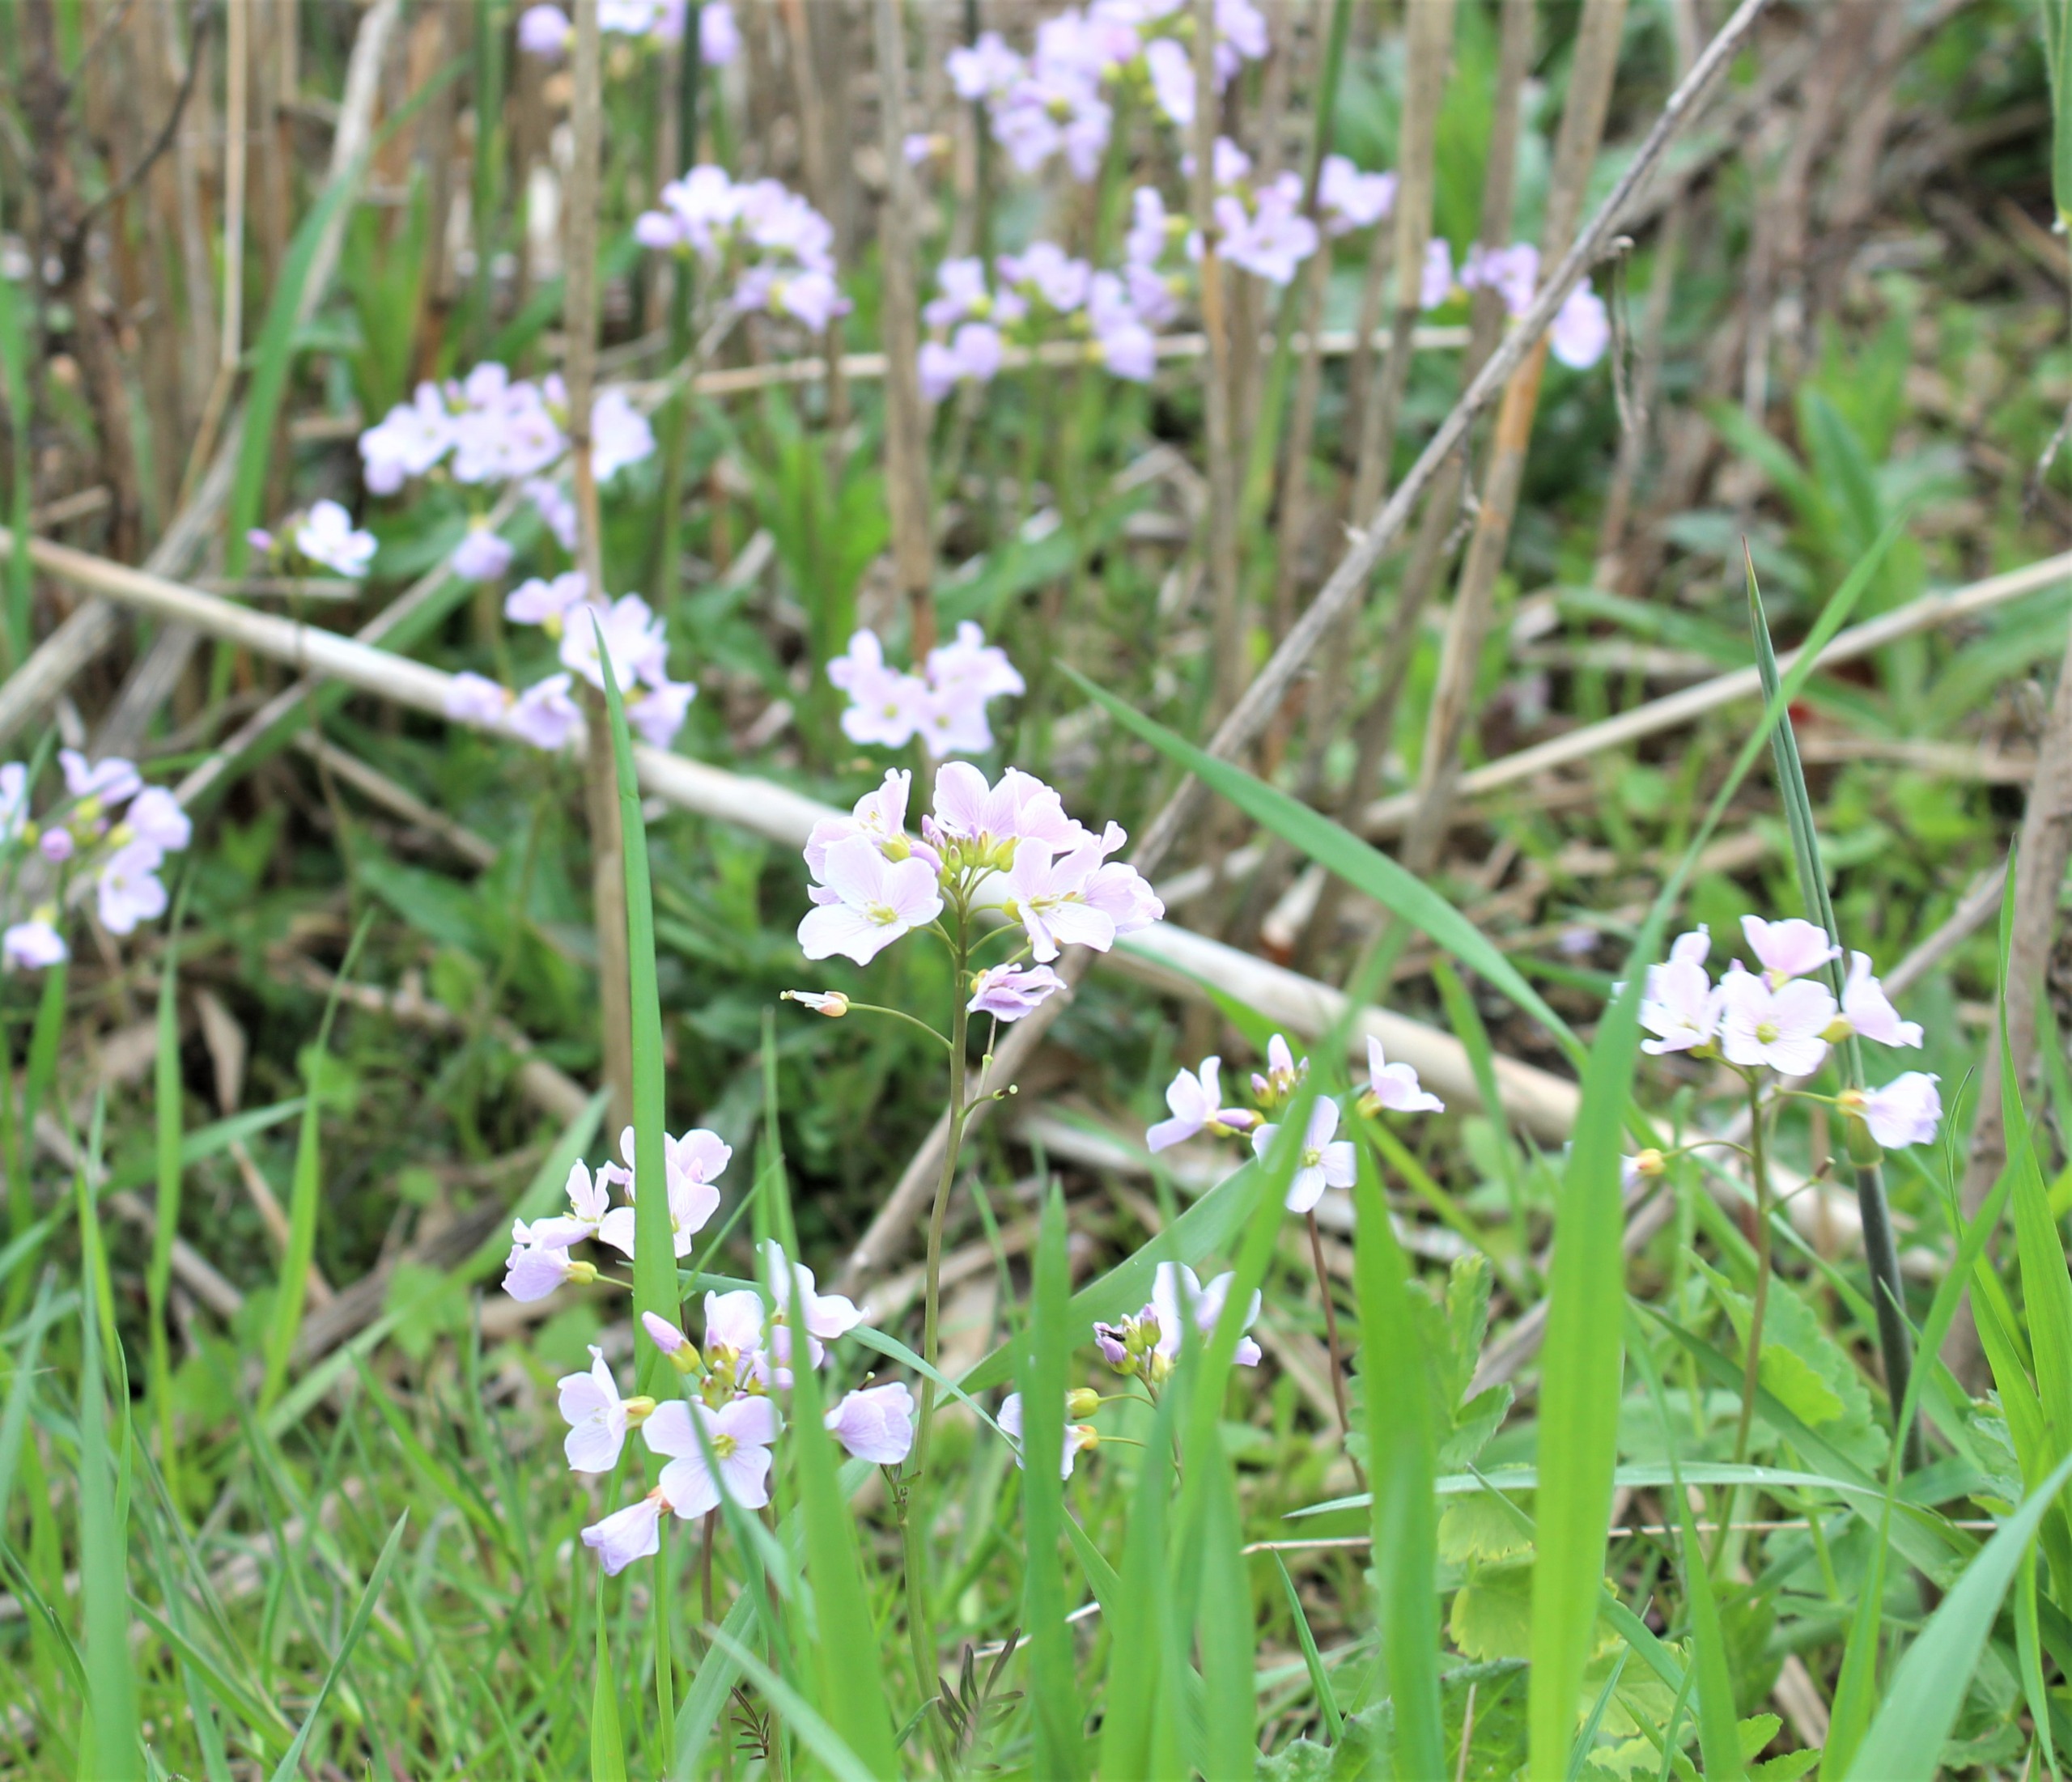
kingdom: Plantae
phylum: Tracheophyta
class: Magnoliopsida
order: Brassicales
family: Brassicaceae
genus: Cardamine
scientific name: Cardamine pratensis
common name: Engkarse
